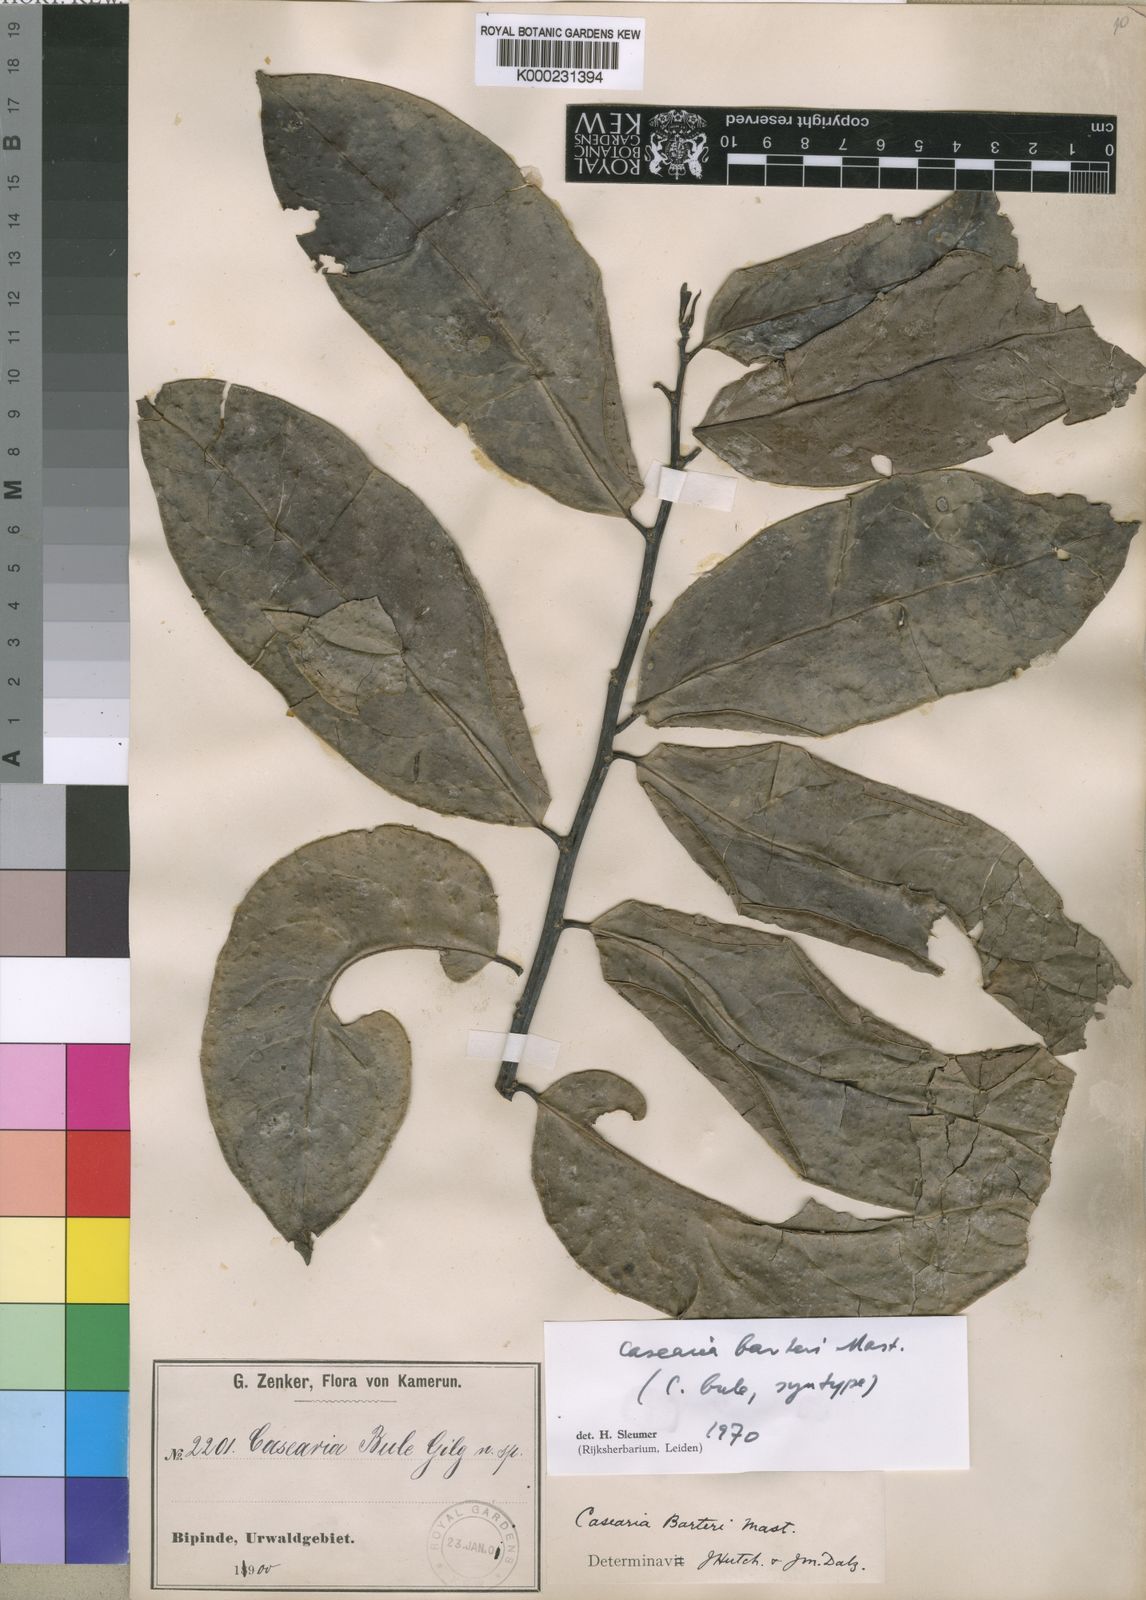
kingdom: Plantae
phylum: Tracheophyta
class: Magnoliopsida
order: Malpighiales
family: Salicaceae
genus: Casearia
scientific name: Casearia barteri
